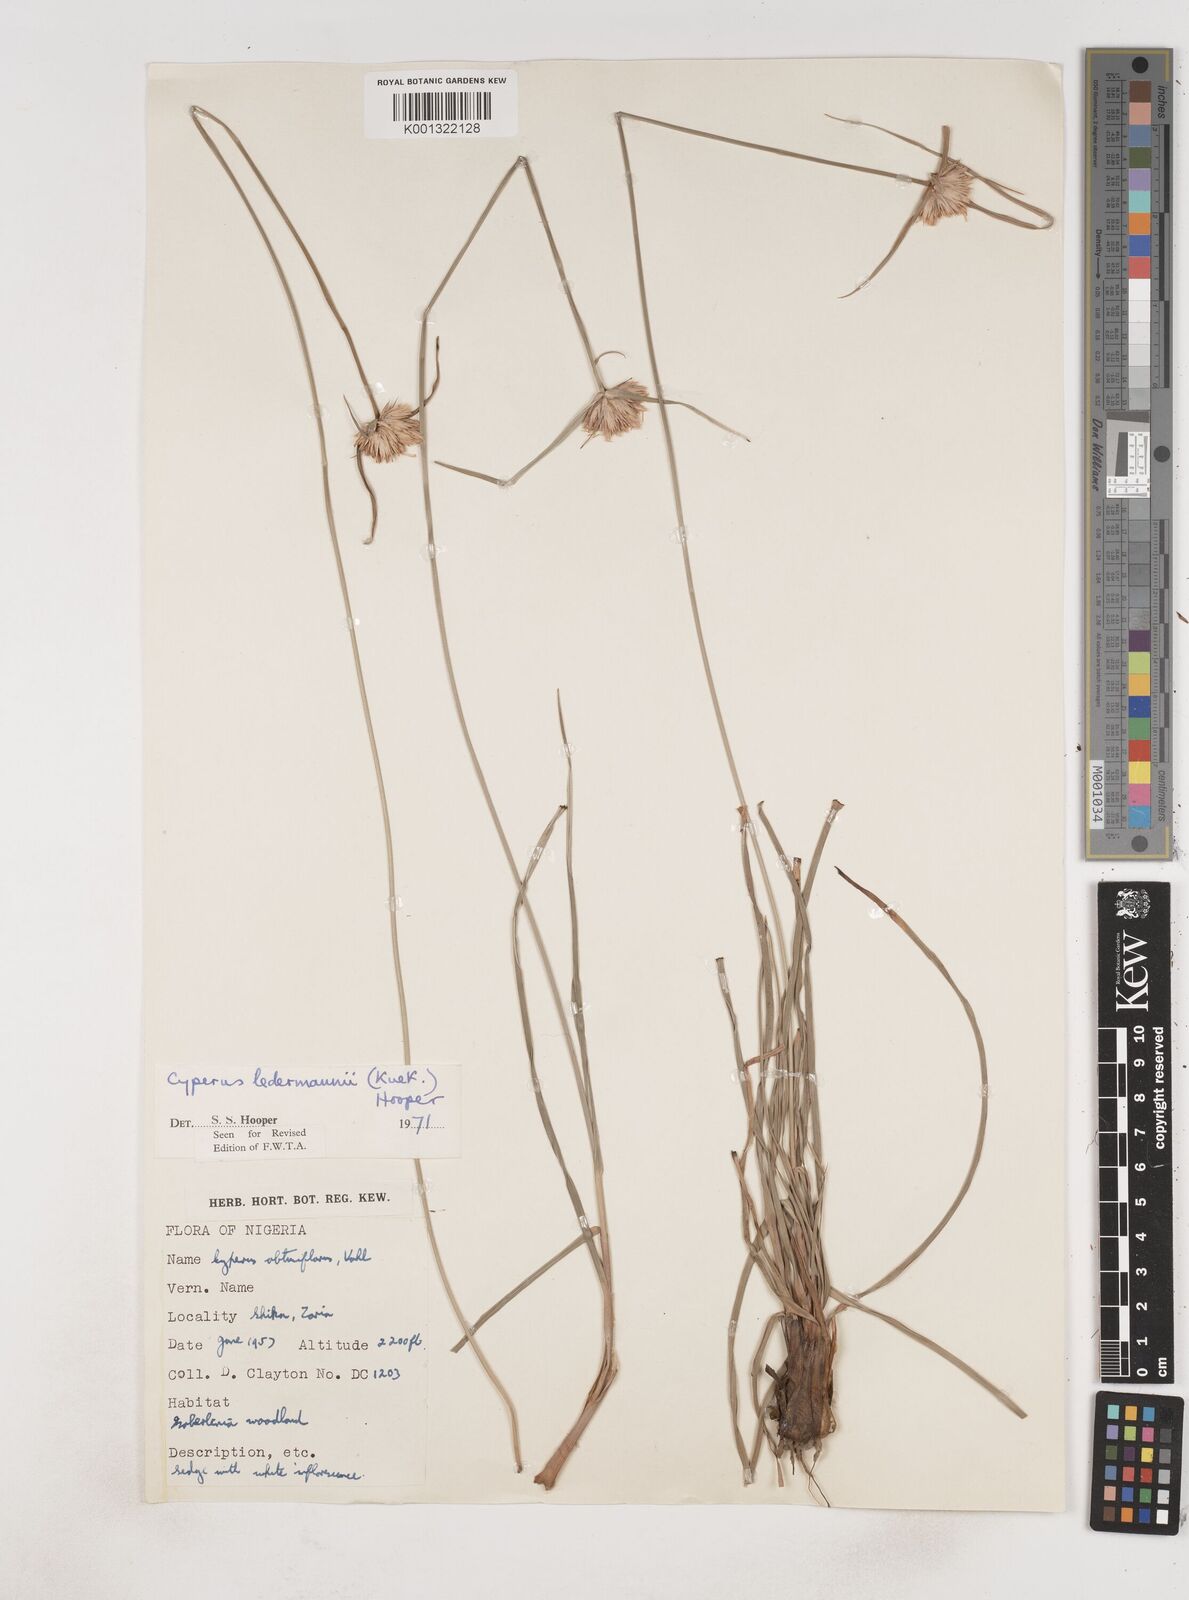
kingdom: Plantae
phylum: Tracheophyta
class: Liliopsida
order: Poales
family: Cyperaceae
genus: Cyperus
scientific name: Cyperus niveus
